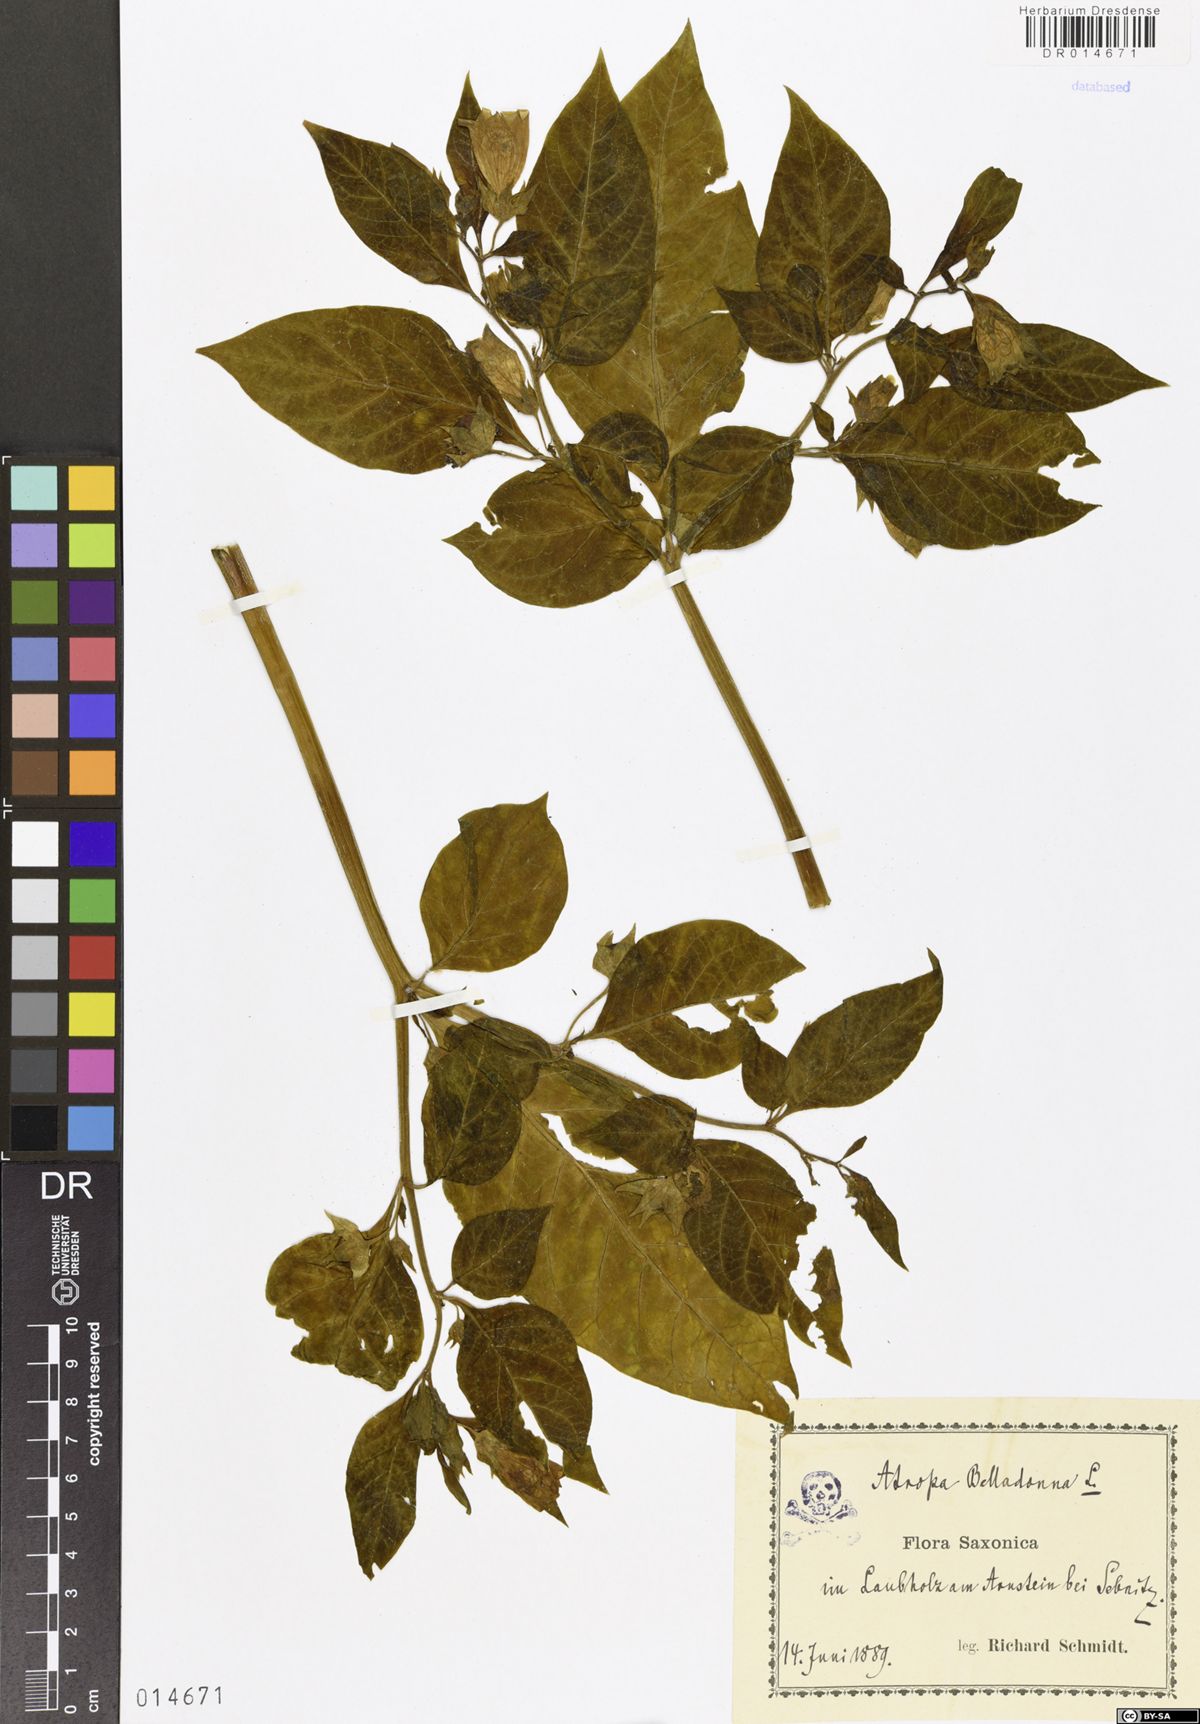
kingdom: Plantae
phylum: Tracheophyta
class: Magnoliopsida
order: Solanales
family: Solanaceae
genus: Atropa
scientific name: Atropa belladonna
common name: Deadly nightshade
